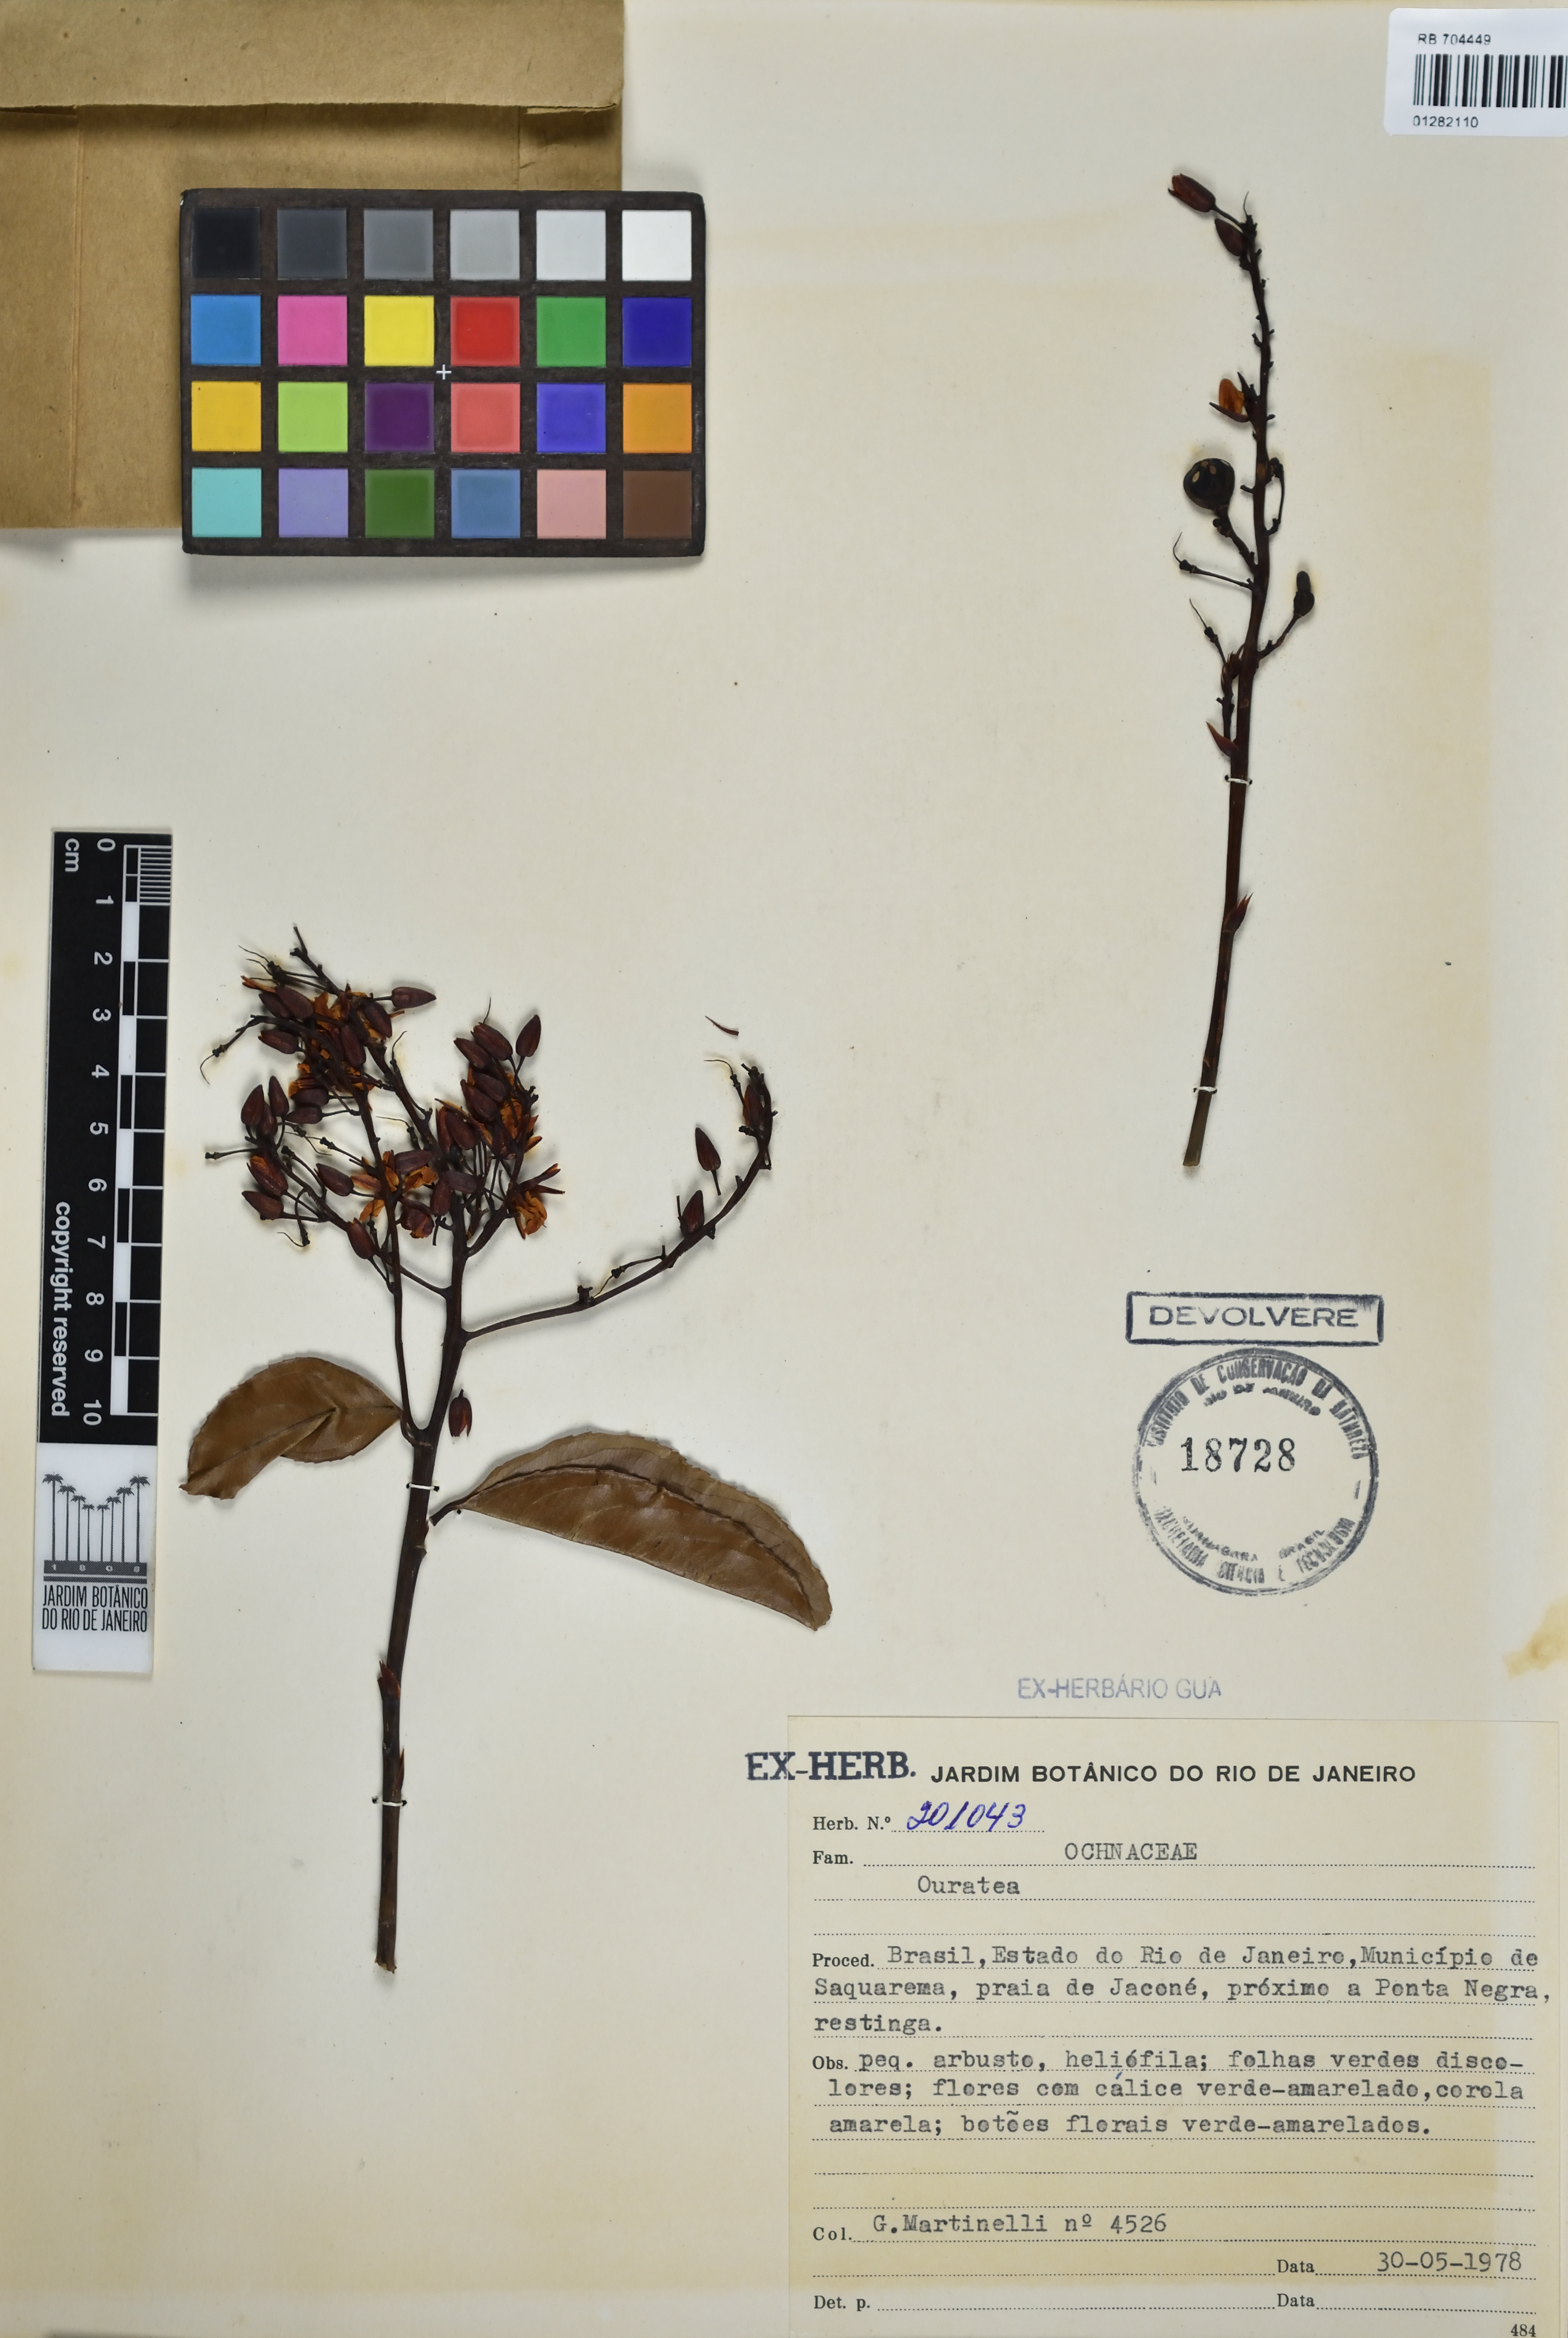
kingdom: Plantae
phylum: Tracheophyta
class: Magnoliopsida
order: Malpighiales
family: Ochnaceae
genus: Ouratea
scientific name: Ouratea
